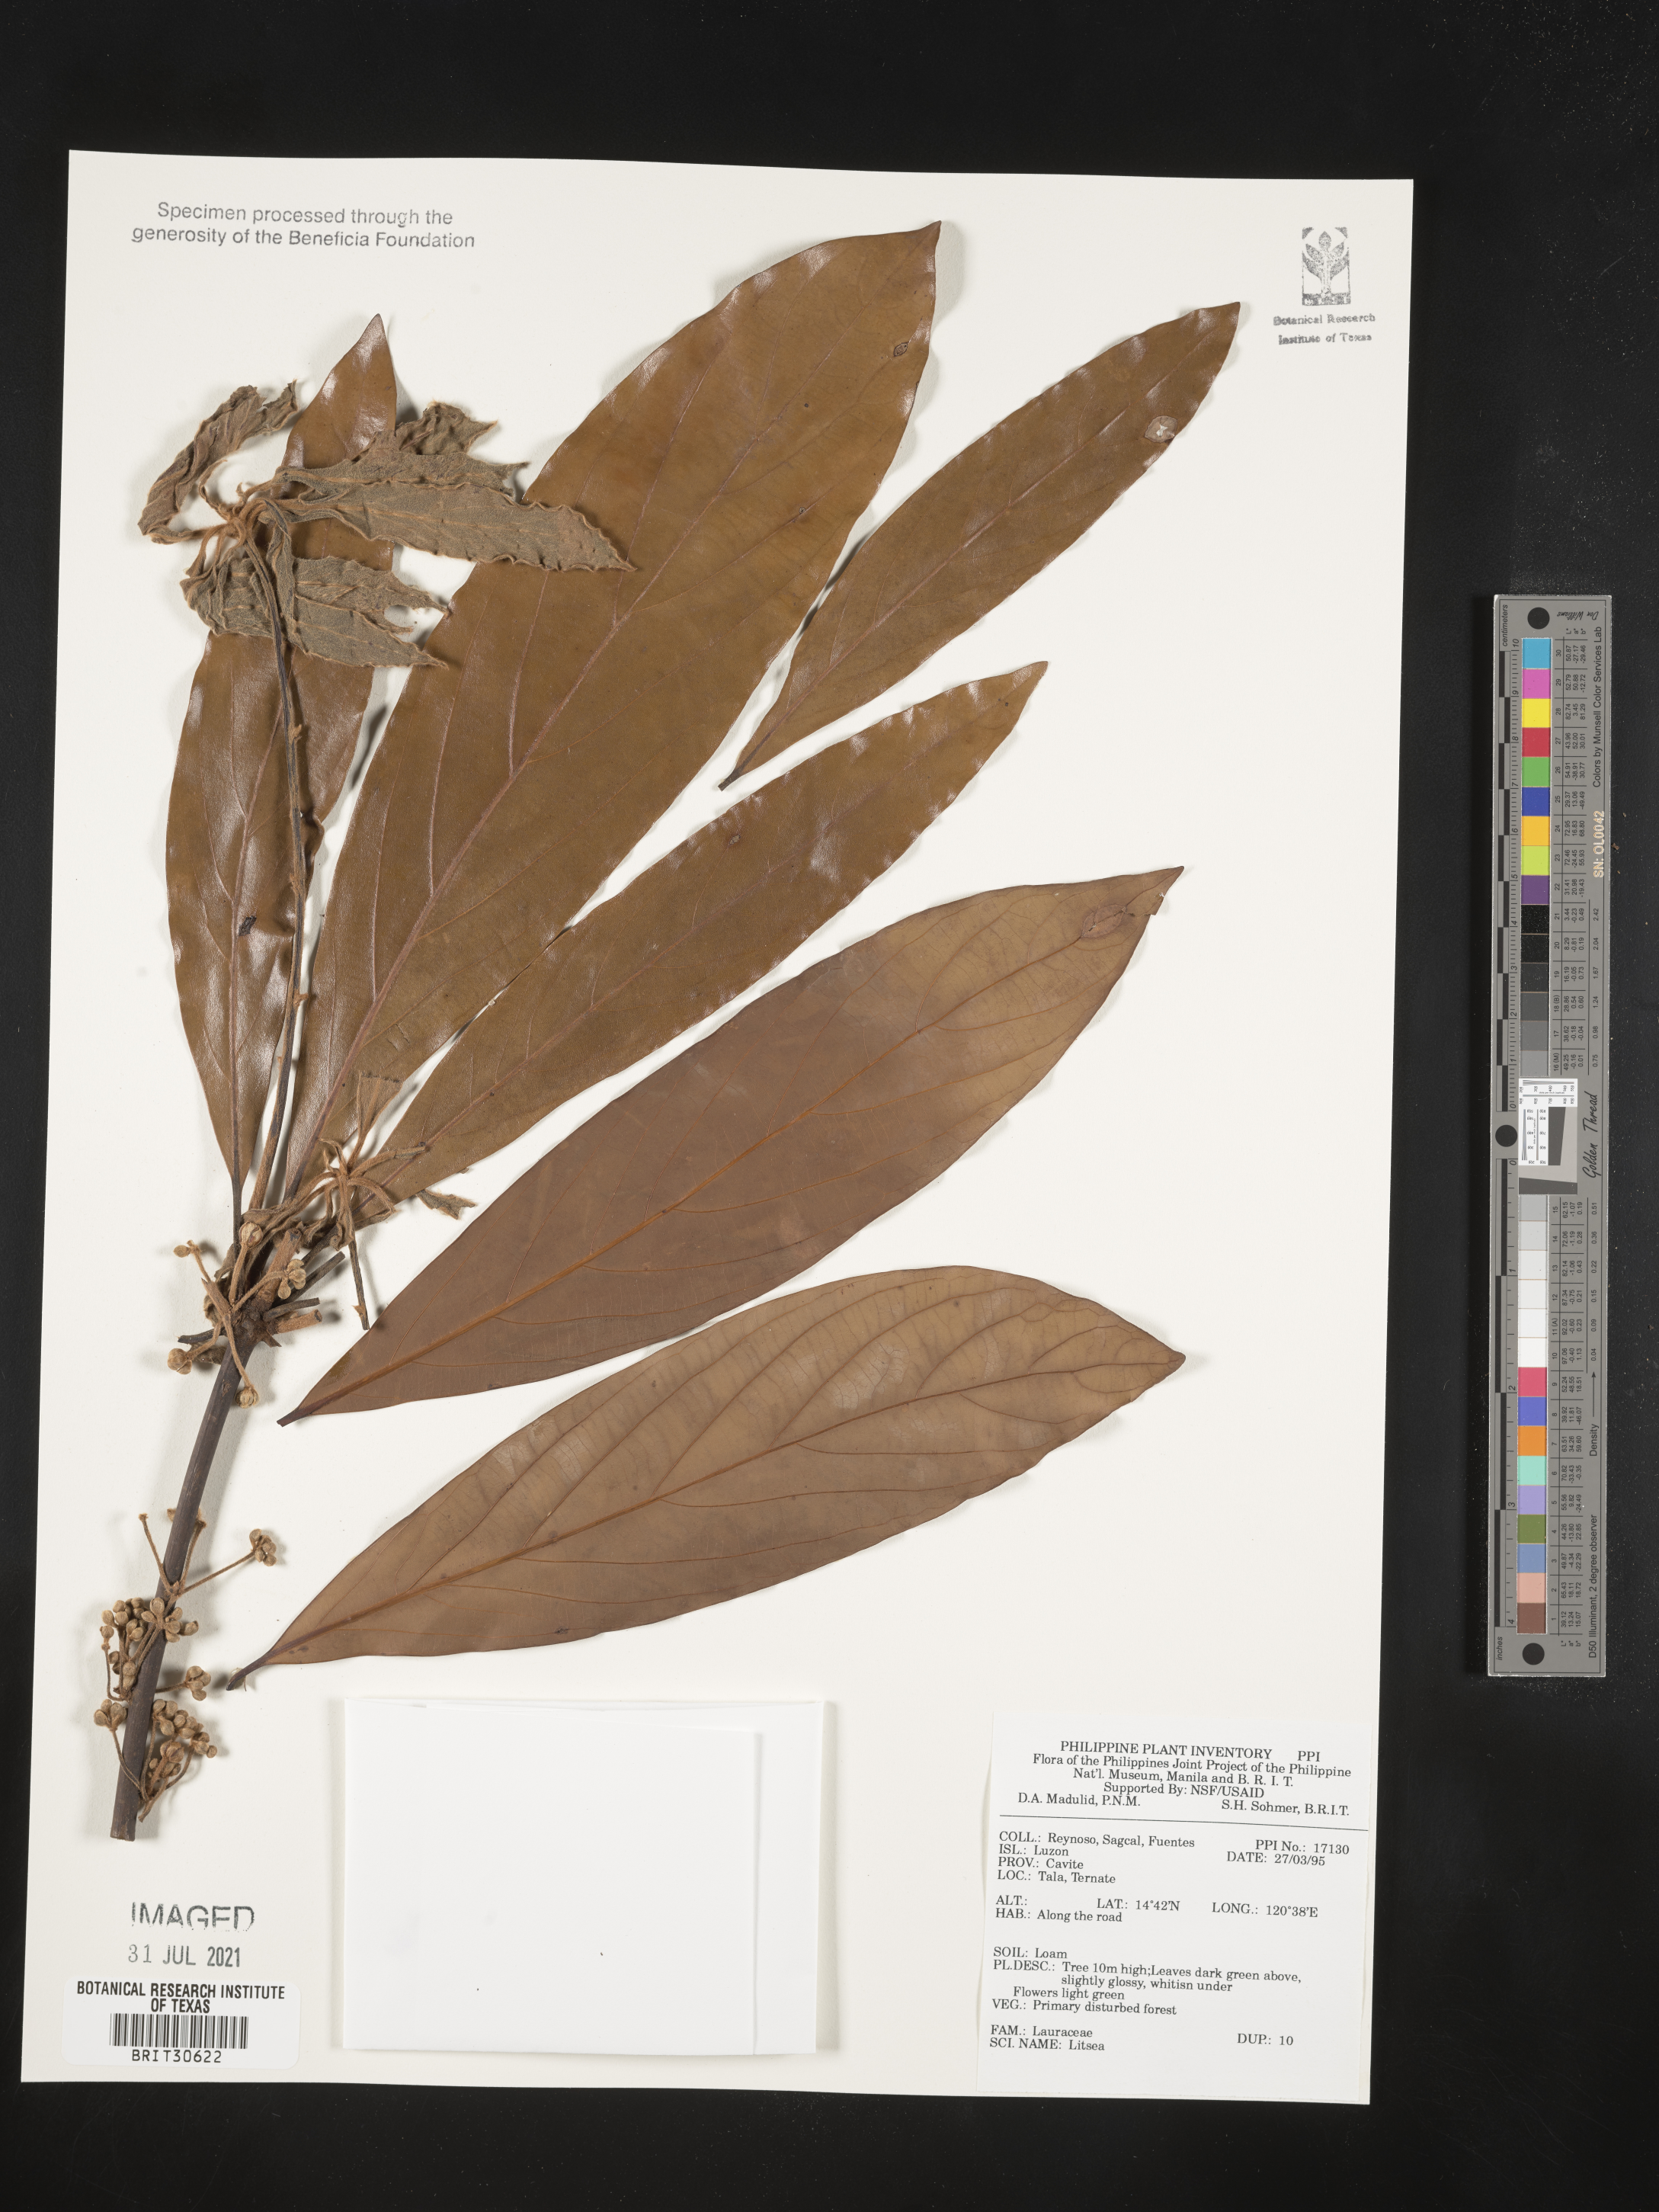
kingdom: Plantae
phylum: Tracheophyta
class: Magnoliopsida
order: Laurales
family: Lauraceae
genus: Litsea
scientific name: Litsea
